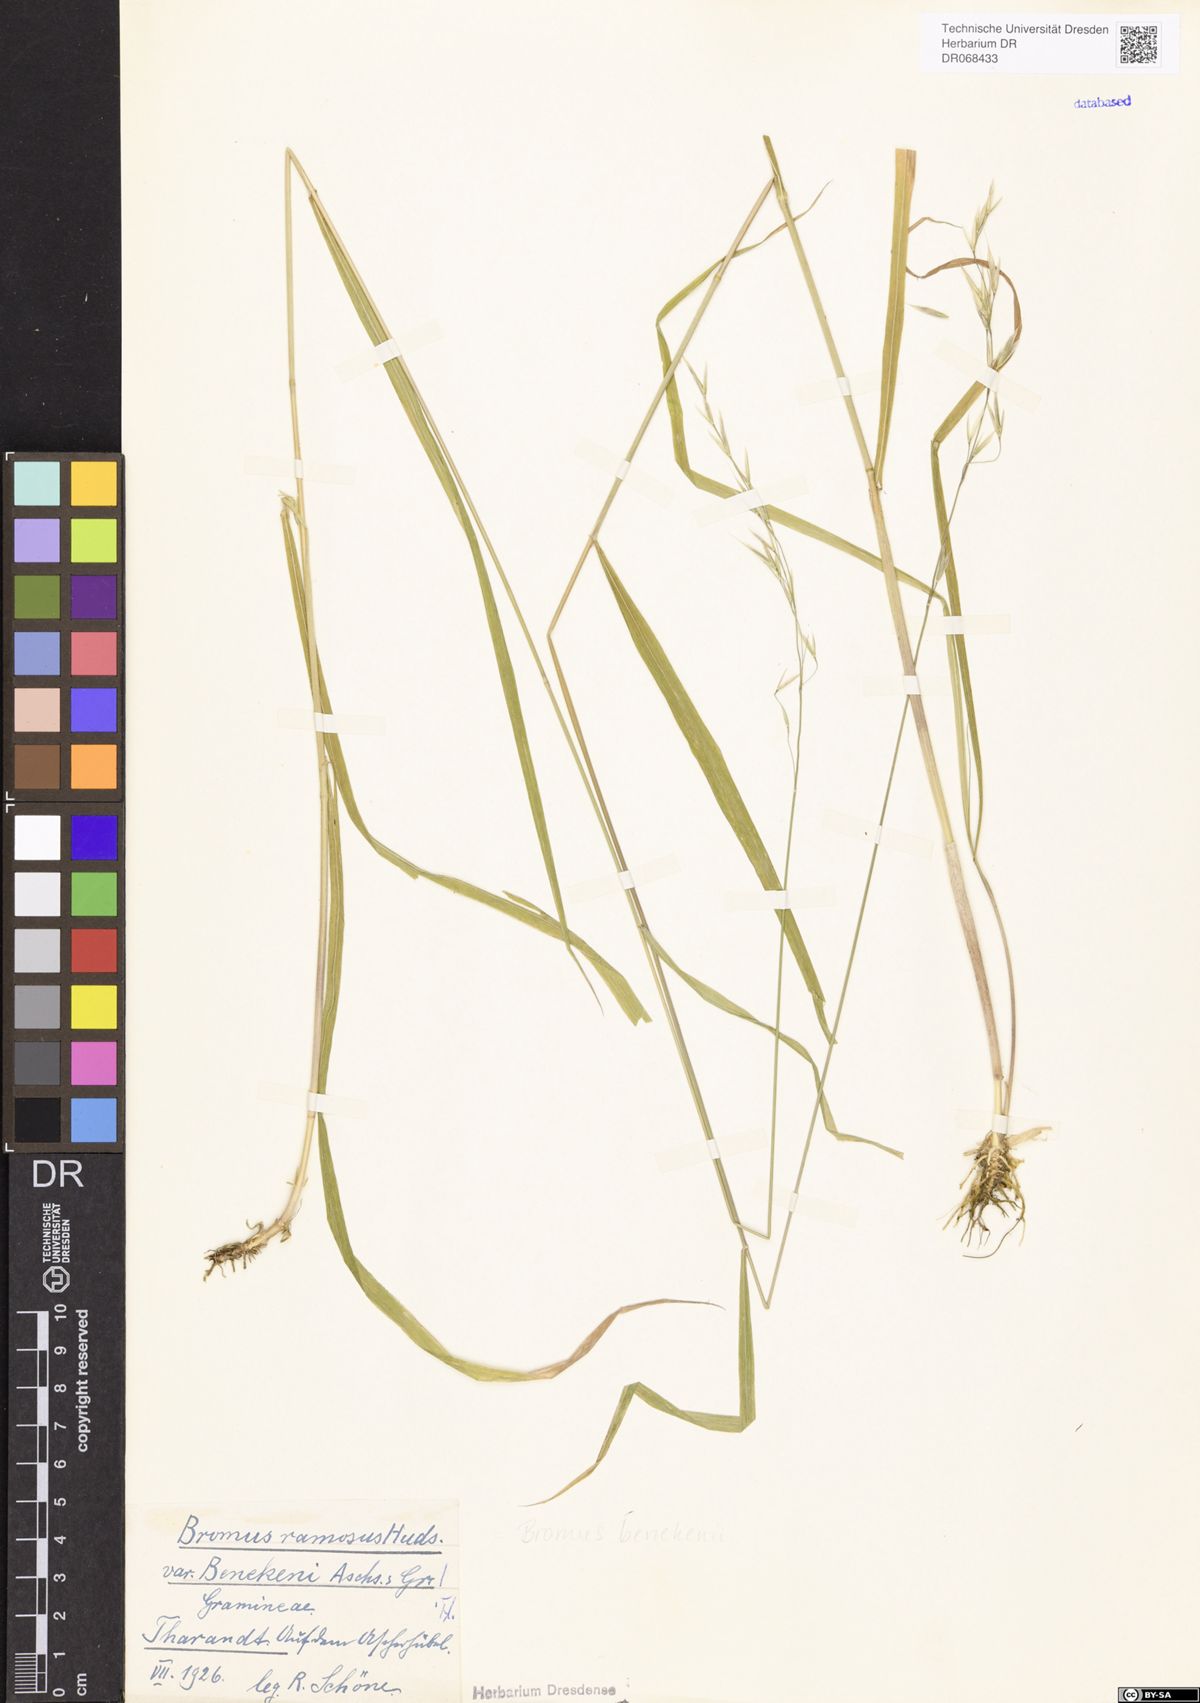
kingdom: Plantae
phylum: Tracheophyta
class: Liliopsida
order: Poales
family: Poaceae
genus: Bromus
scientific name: Bromus benekenii
